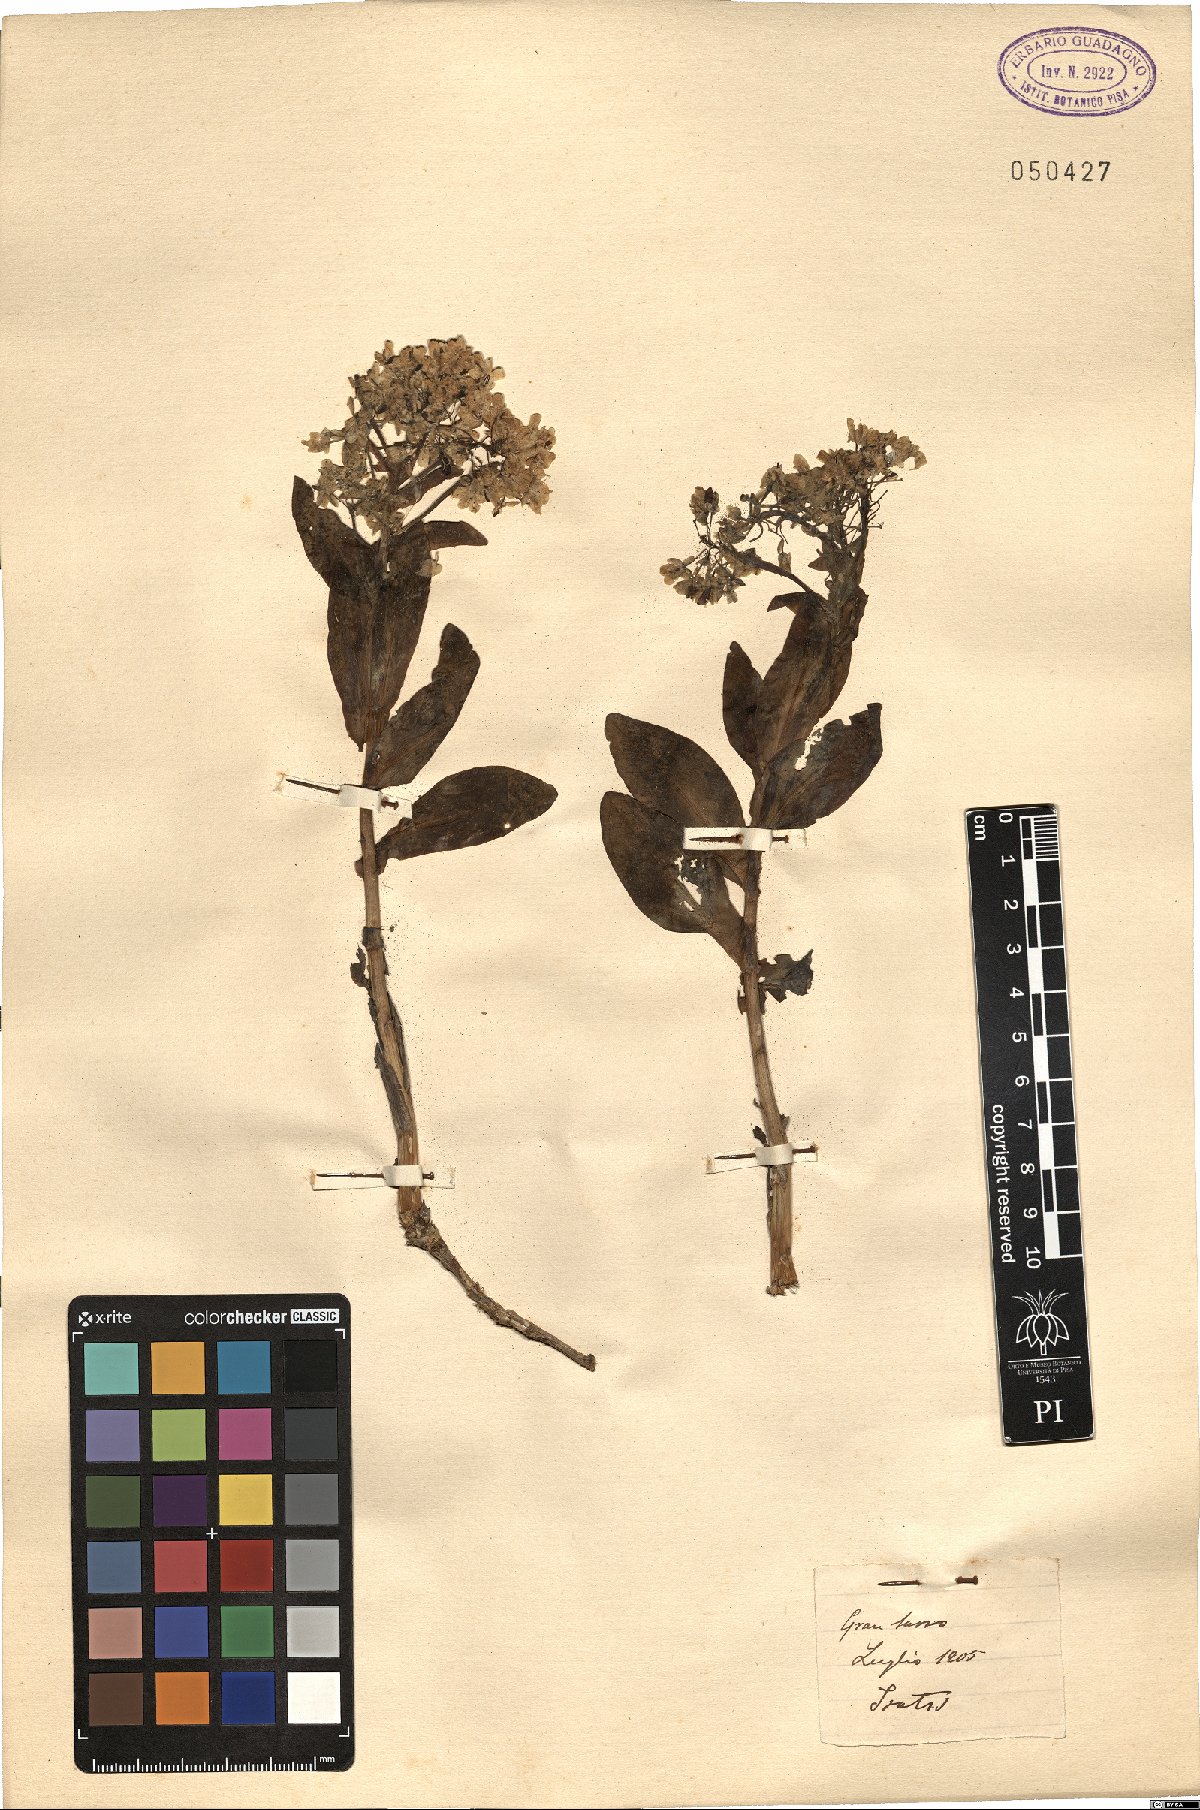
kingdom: Plantae
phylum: Tracheophyta
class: Magnoliopsida
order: Brassicales
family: Brassicaceae
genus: Isatis
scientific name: Isatis
